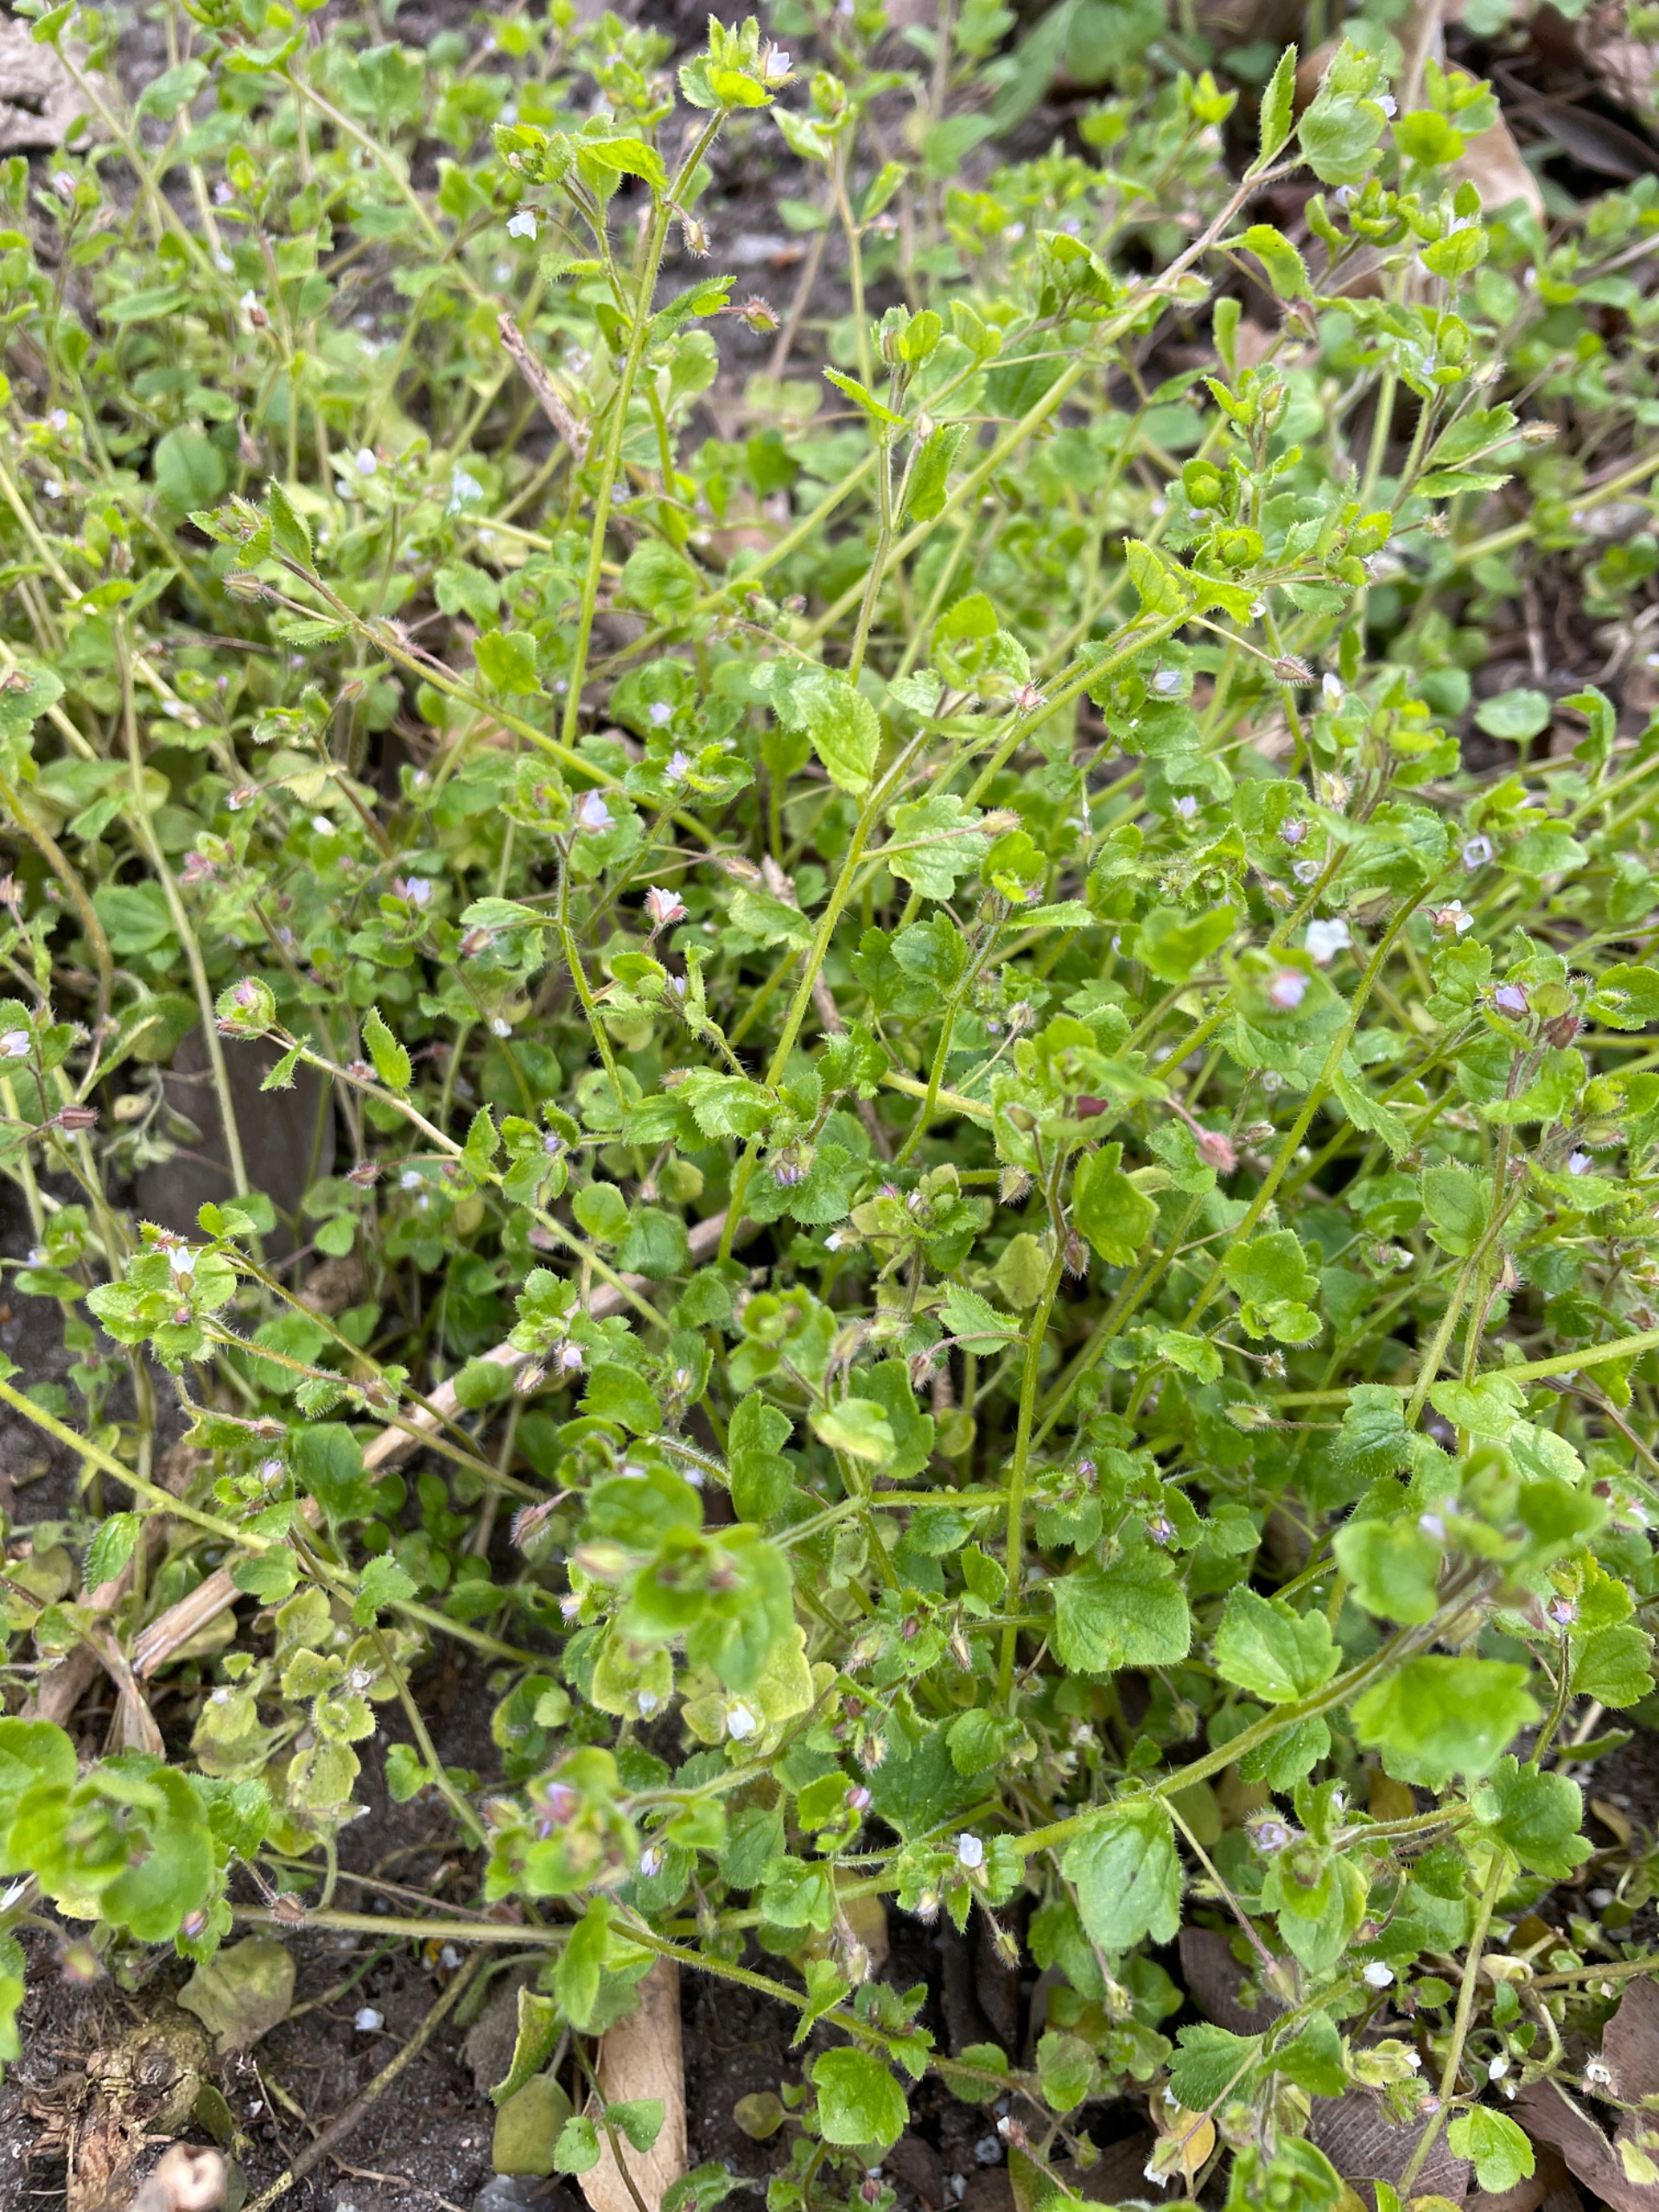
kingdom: Plantae
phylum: Tracheophyta
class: Magnoliopsida
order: Lamiales
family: Plantaginaceae
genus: Veronica
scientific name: Veronica sublobata
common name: Krat-ærenpris
